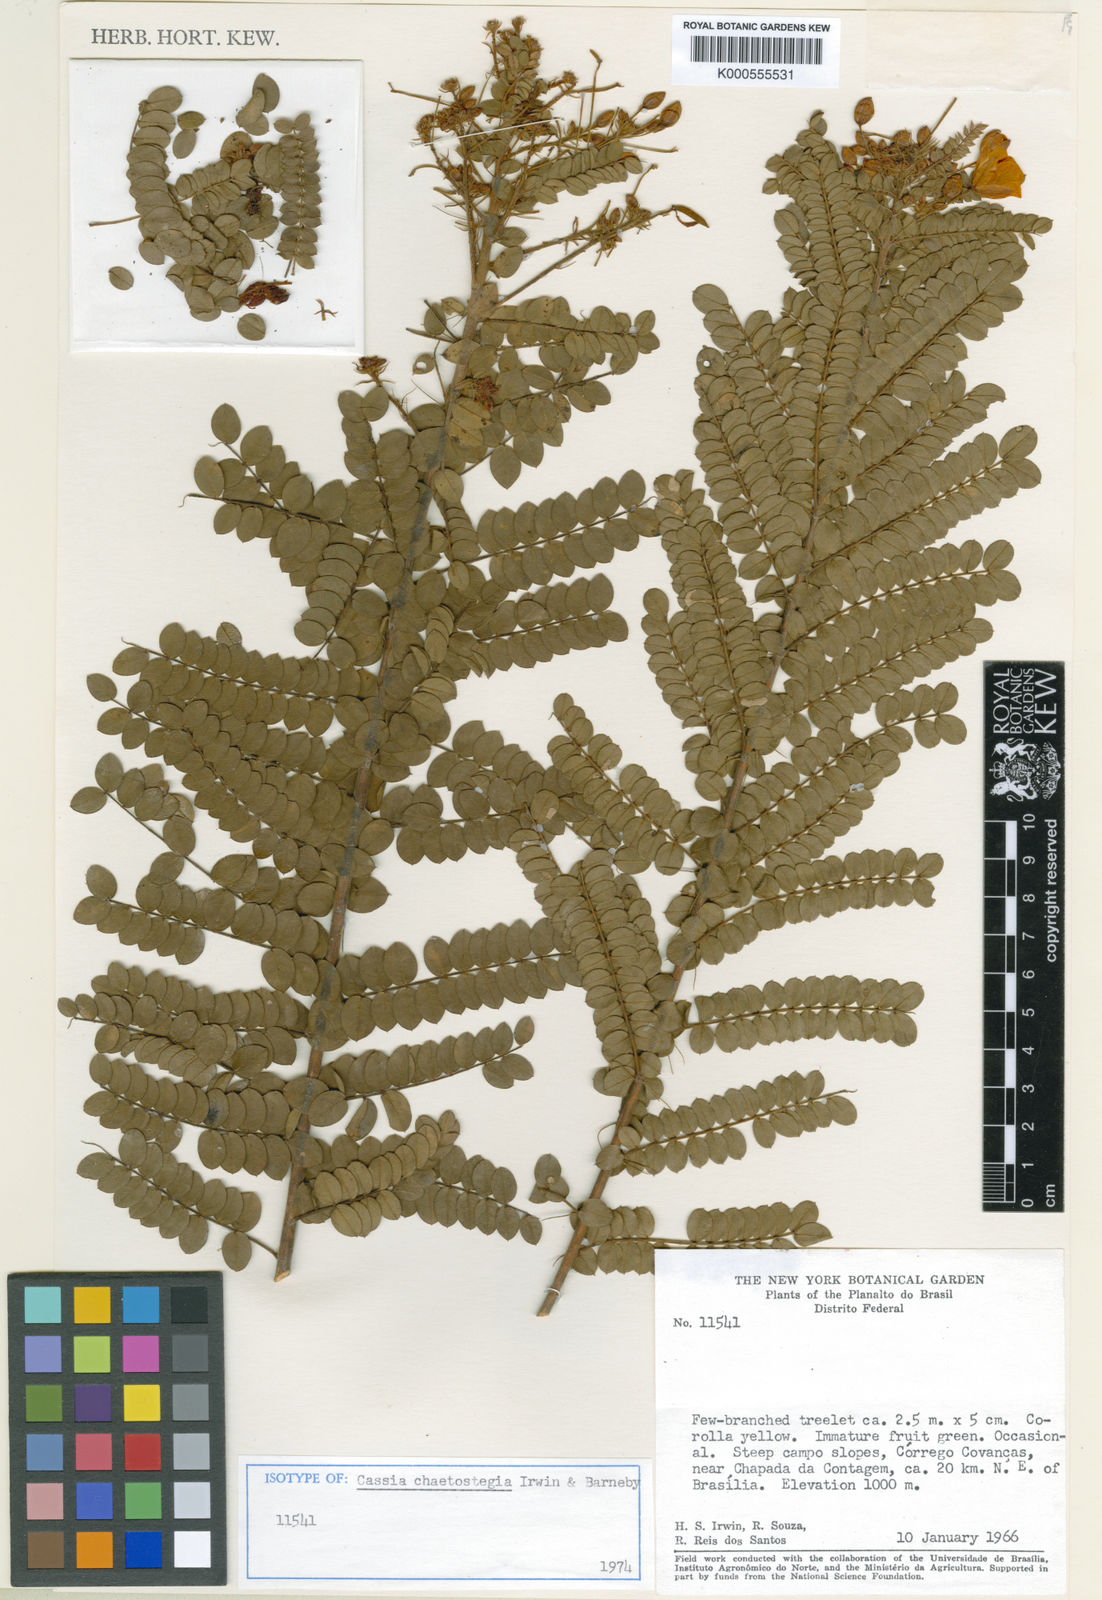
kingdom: Plantae
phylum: Tracheophyta
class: Magnoliopsida
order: Fabales
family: Fabaceae
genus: Chamaecrista
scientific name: Chamaecrista chaetostegia
